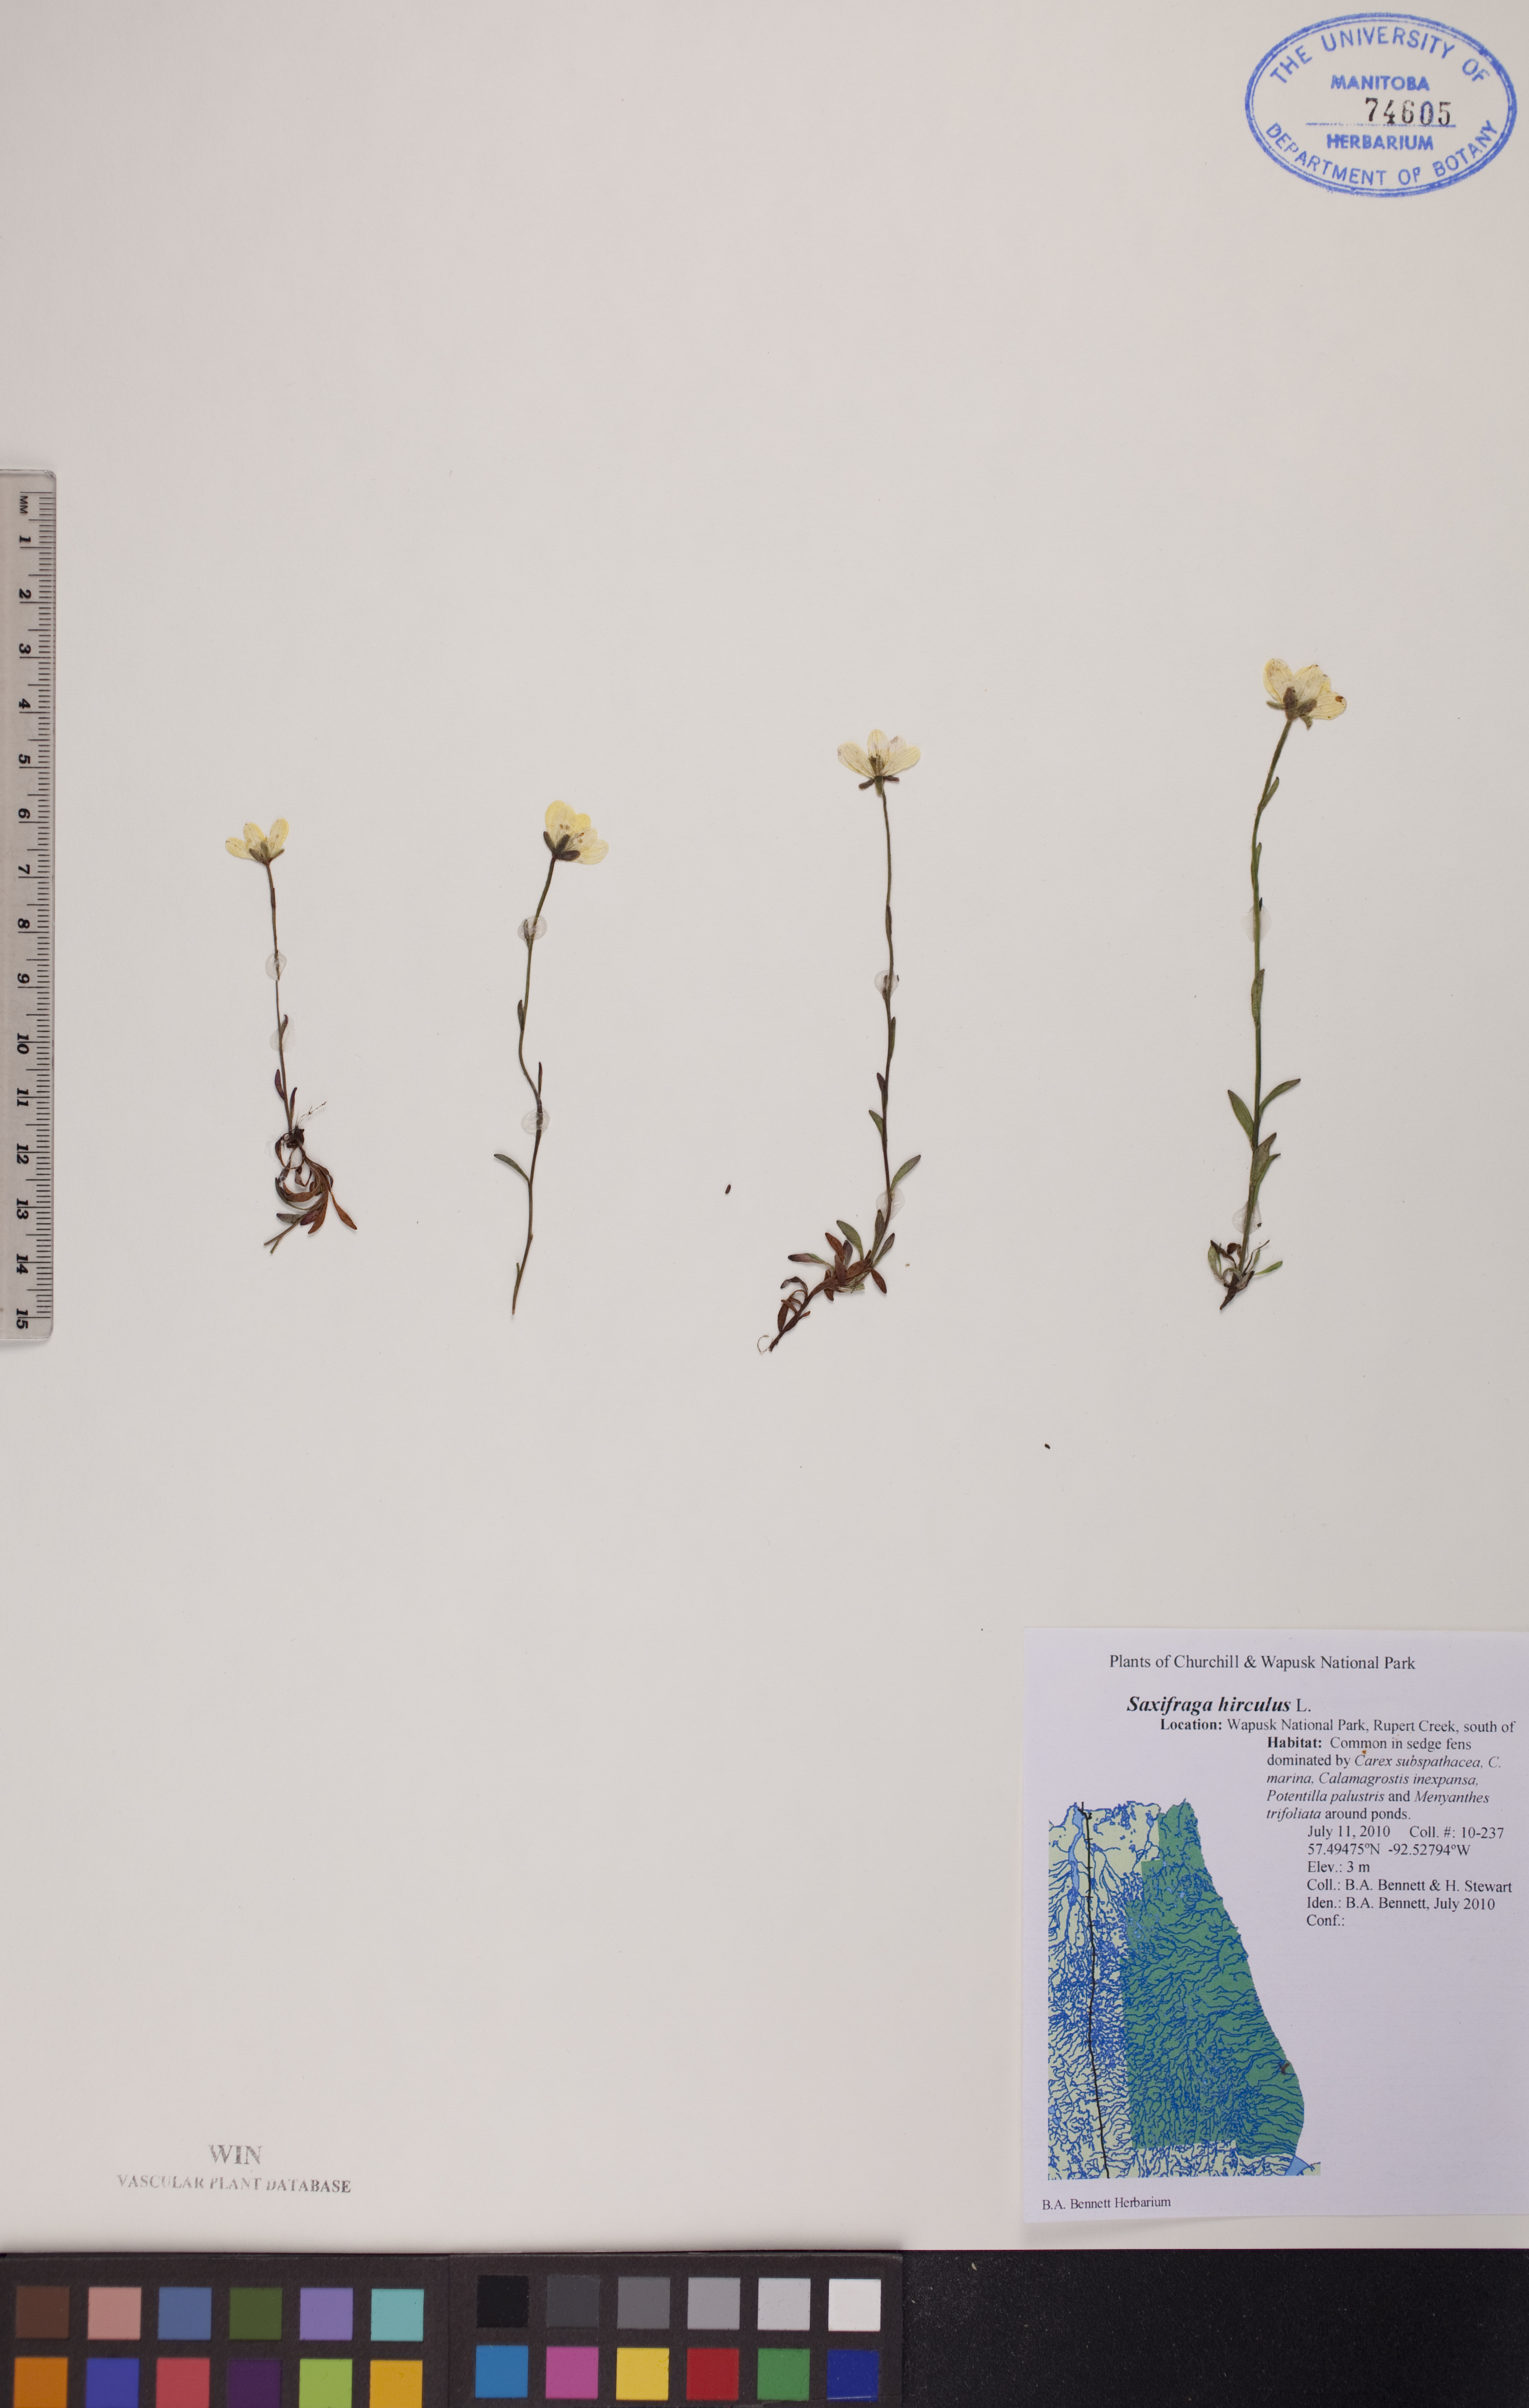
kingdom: Plantae
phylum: Tracheophyta
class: Magnoliopsida
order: Saxifragales
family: Saxifragaceae
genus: Saxifraga
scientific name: Saxifraga hirculus
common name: Yellow marsh saxifrage
